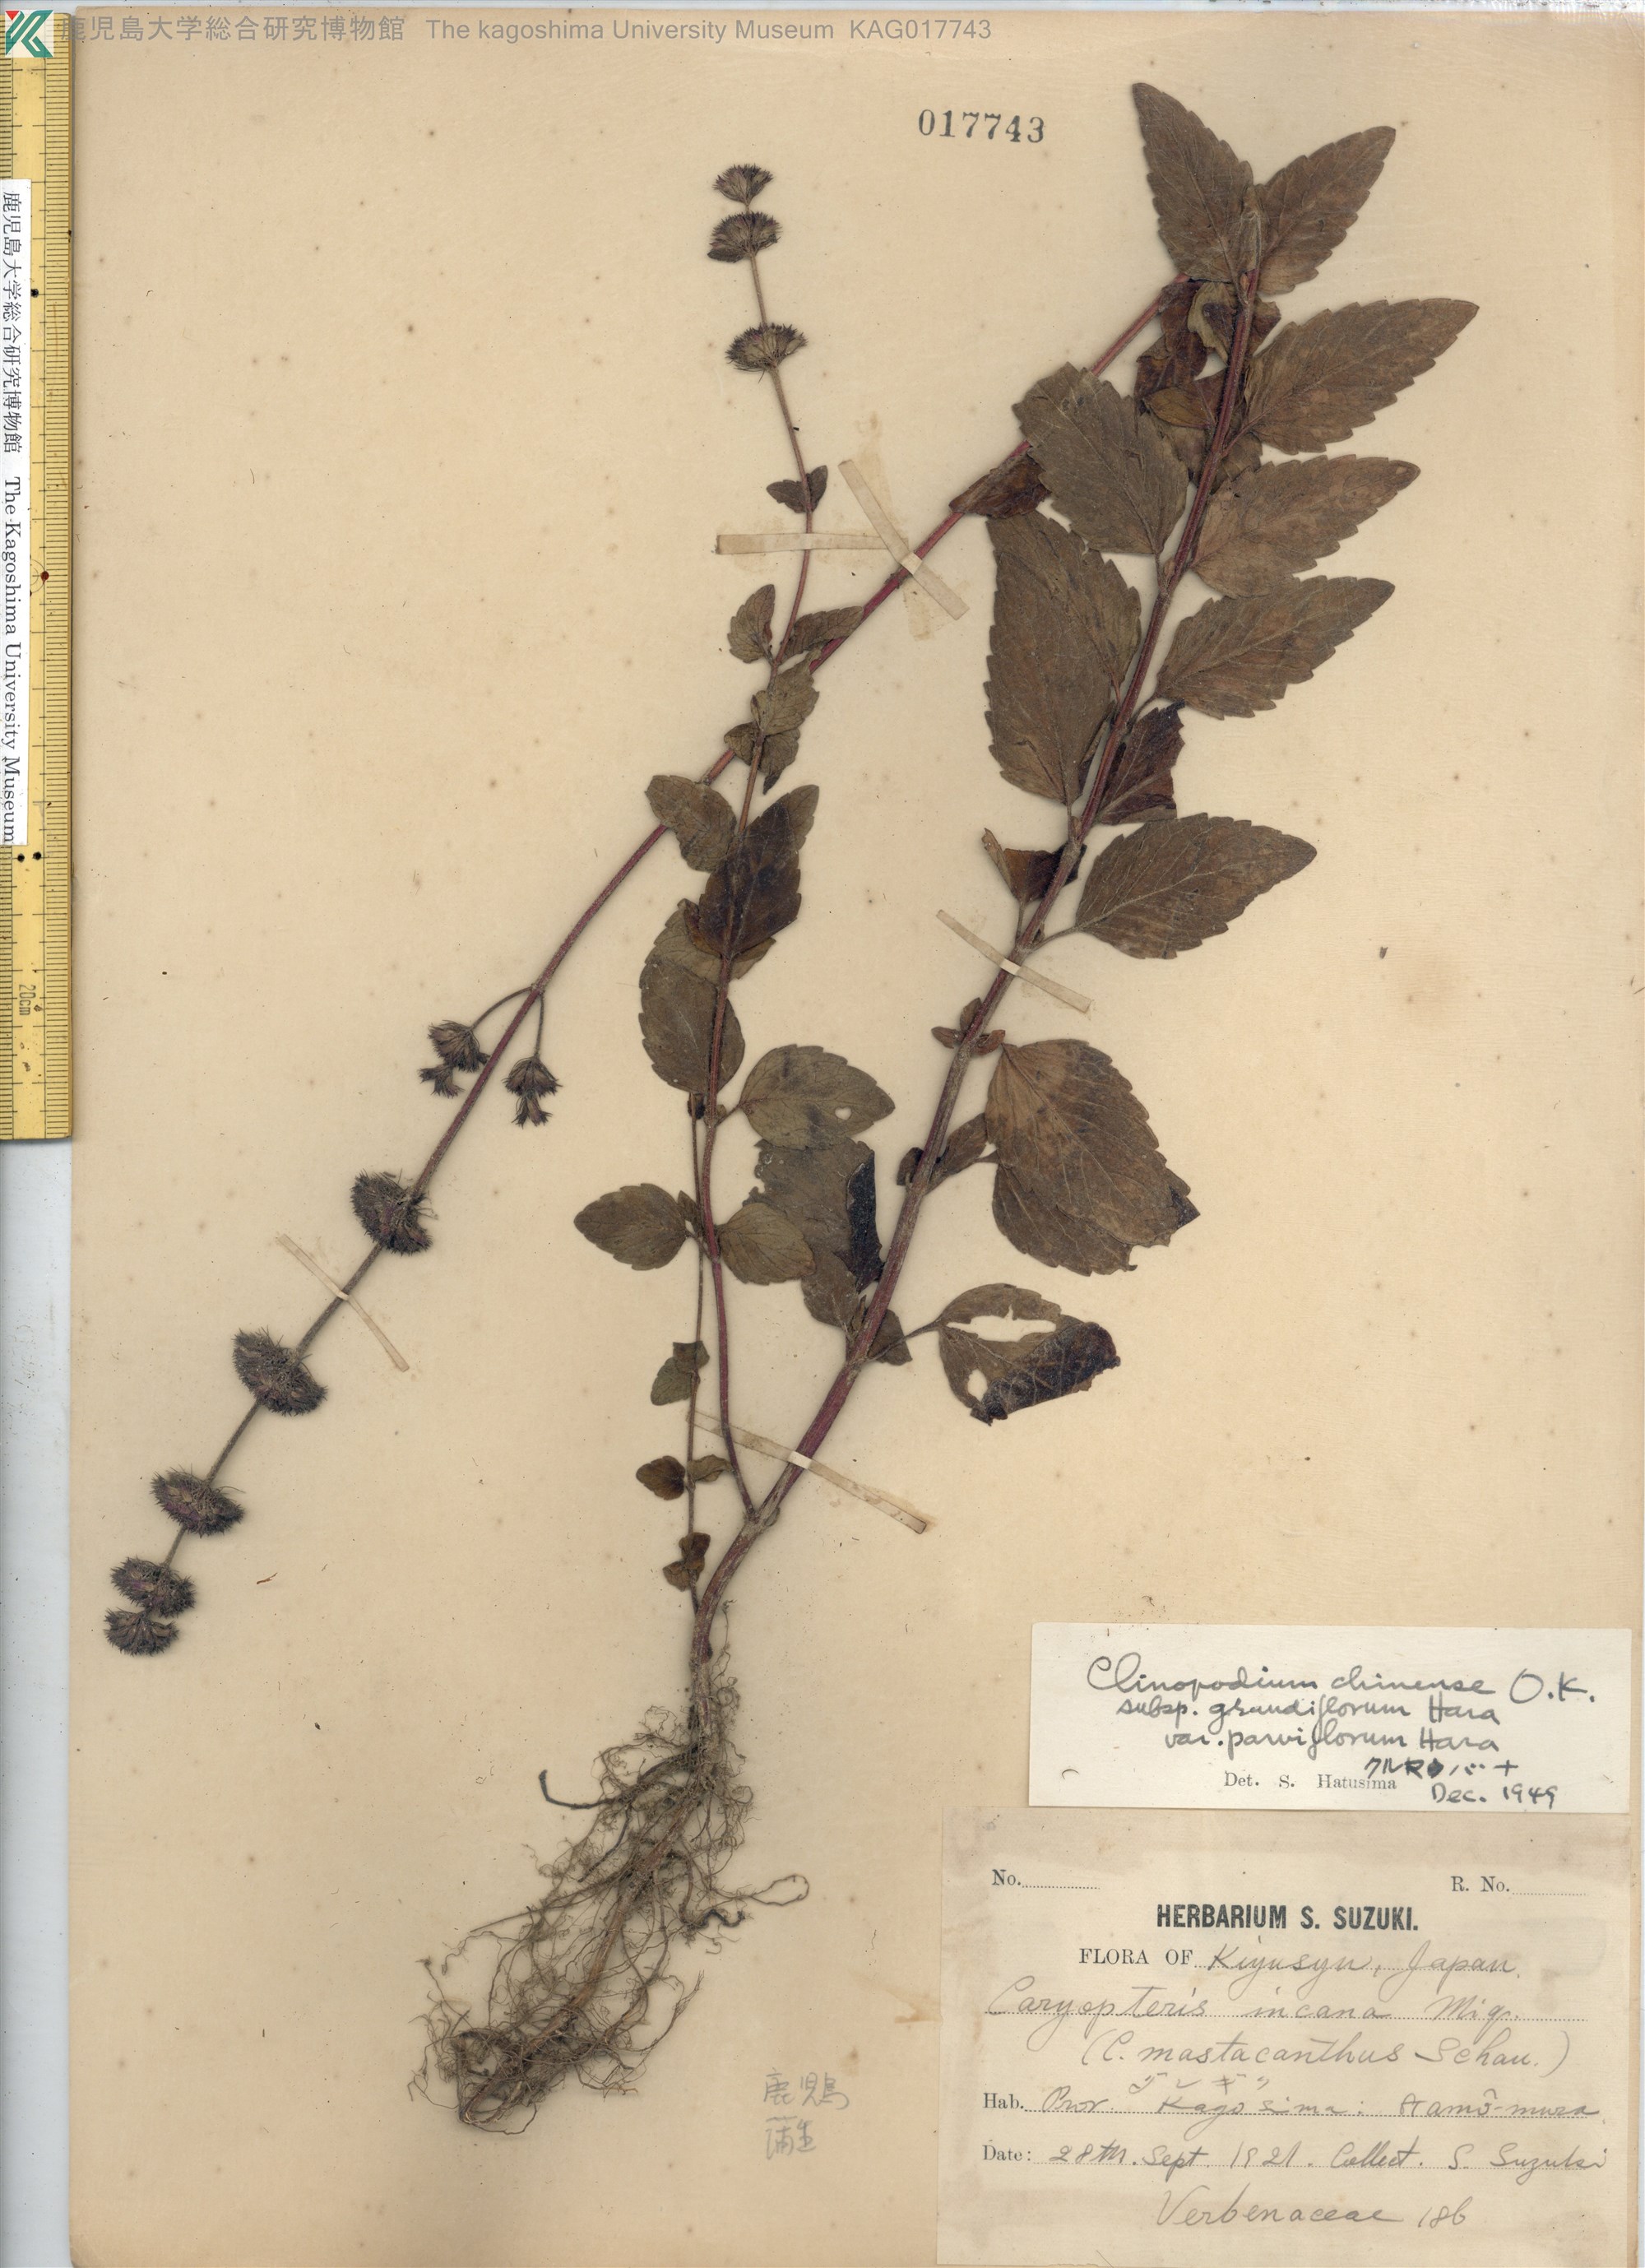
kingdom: Plantae
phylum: Tracheophyta
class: Magnoliopsida
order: Lamiales
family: Lamiaceae
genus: Clinopodium
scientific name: Clinopodium chinense
